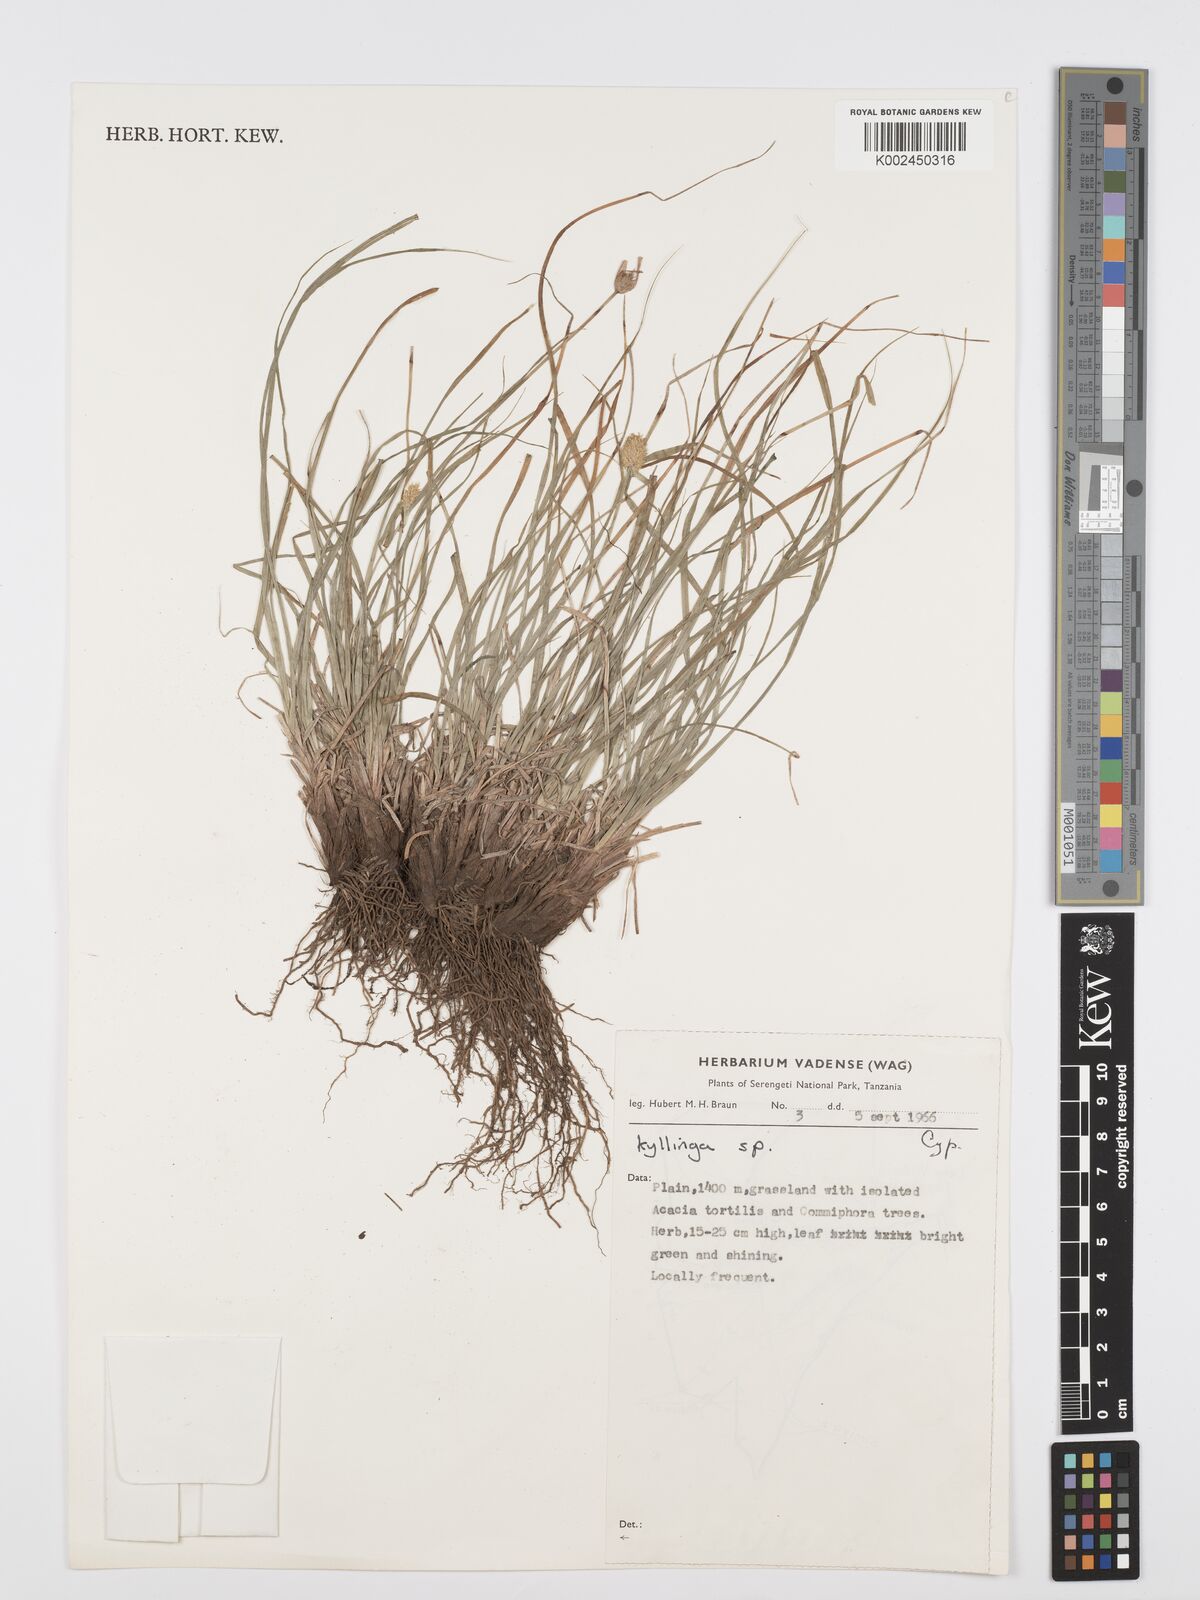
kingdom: Plantae
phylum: Tracheophyta
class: Liliopsida
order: Poales
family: Cyperaceae
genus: Cyperus
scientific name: Cyperus
